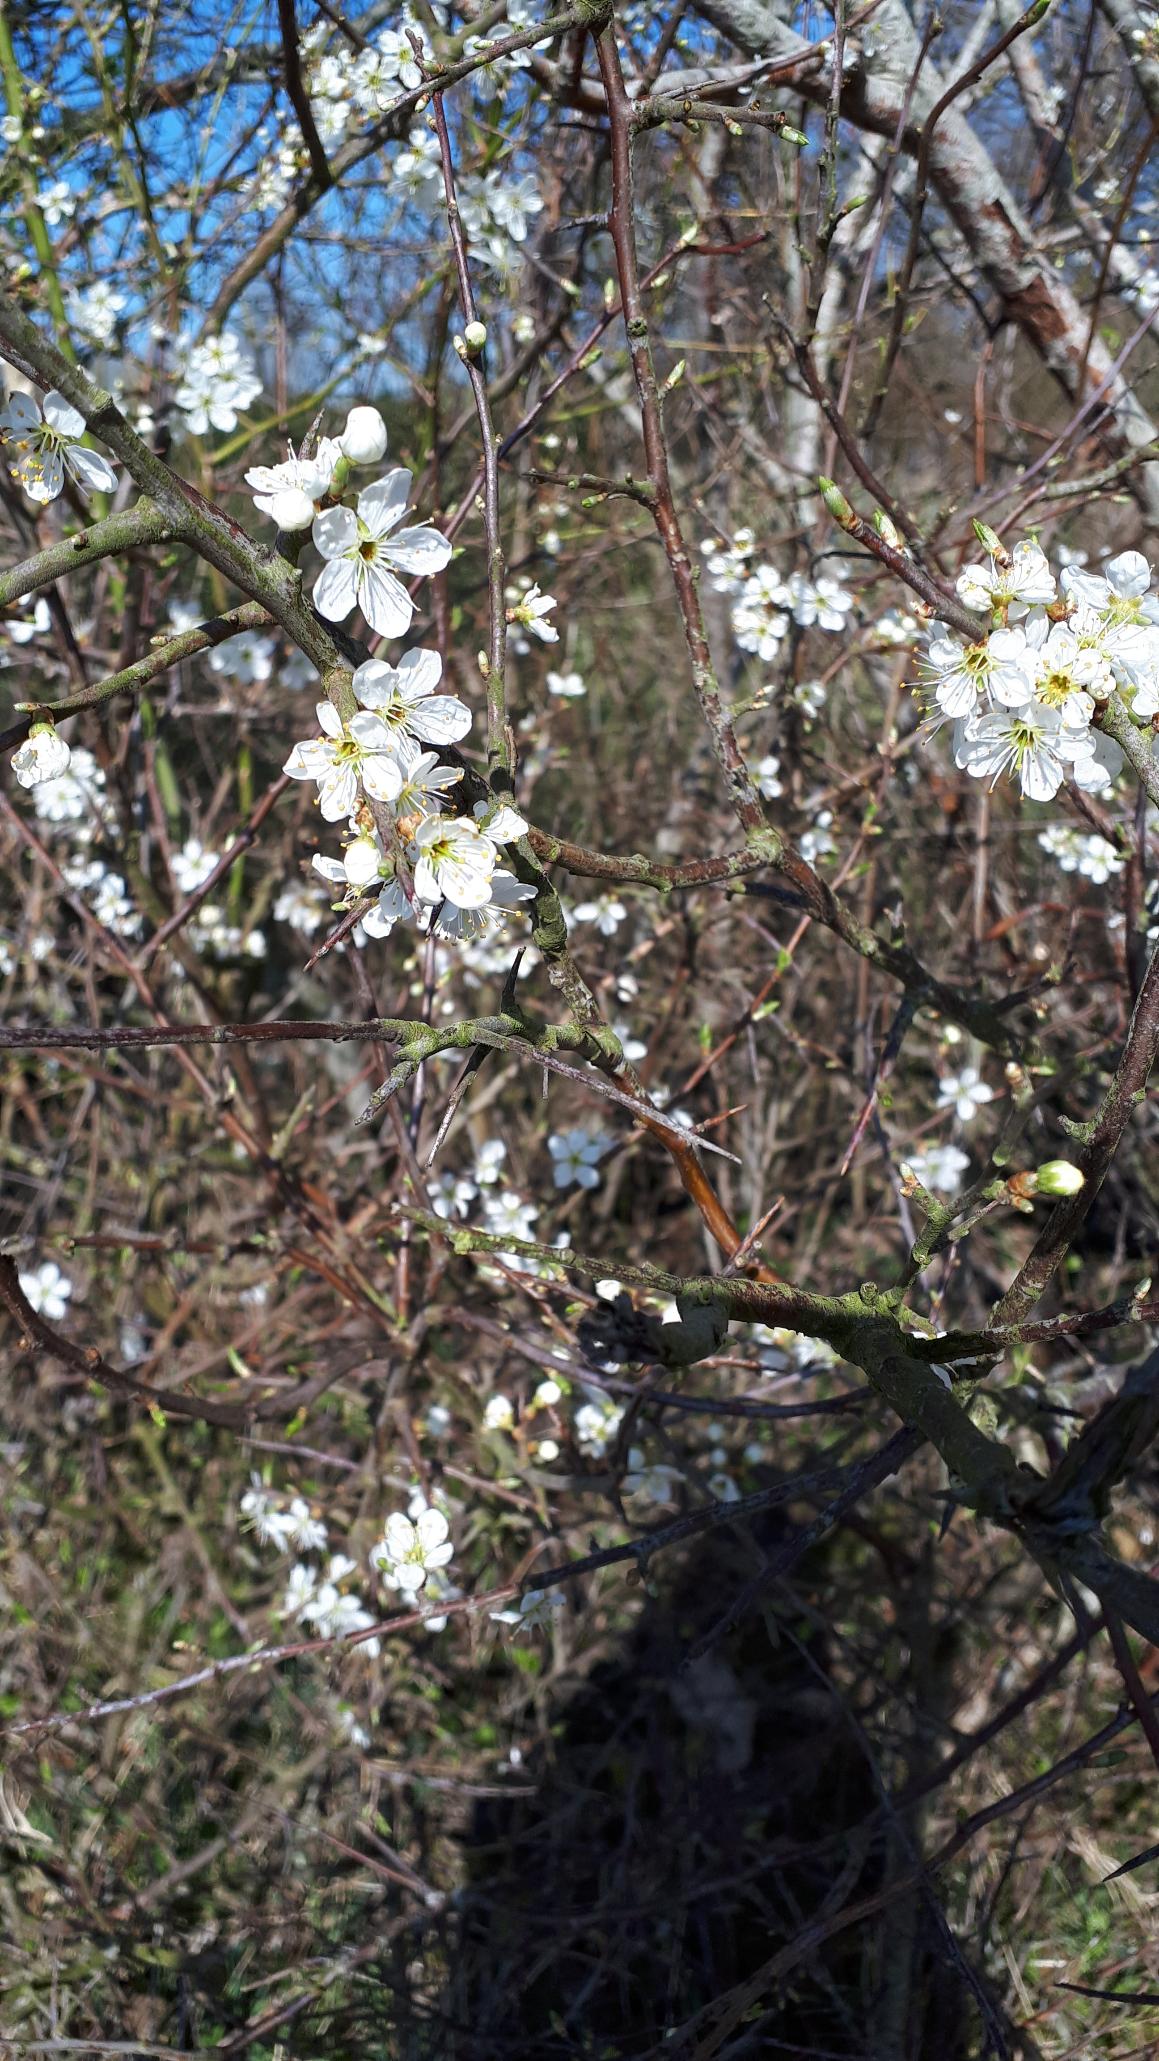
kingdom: Plantae
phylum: Tracheophyta
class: Magnoliopsida
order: Rosales
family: Rosaceae
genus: Prunus
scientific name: Prunus spinosa
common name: Slåen
